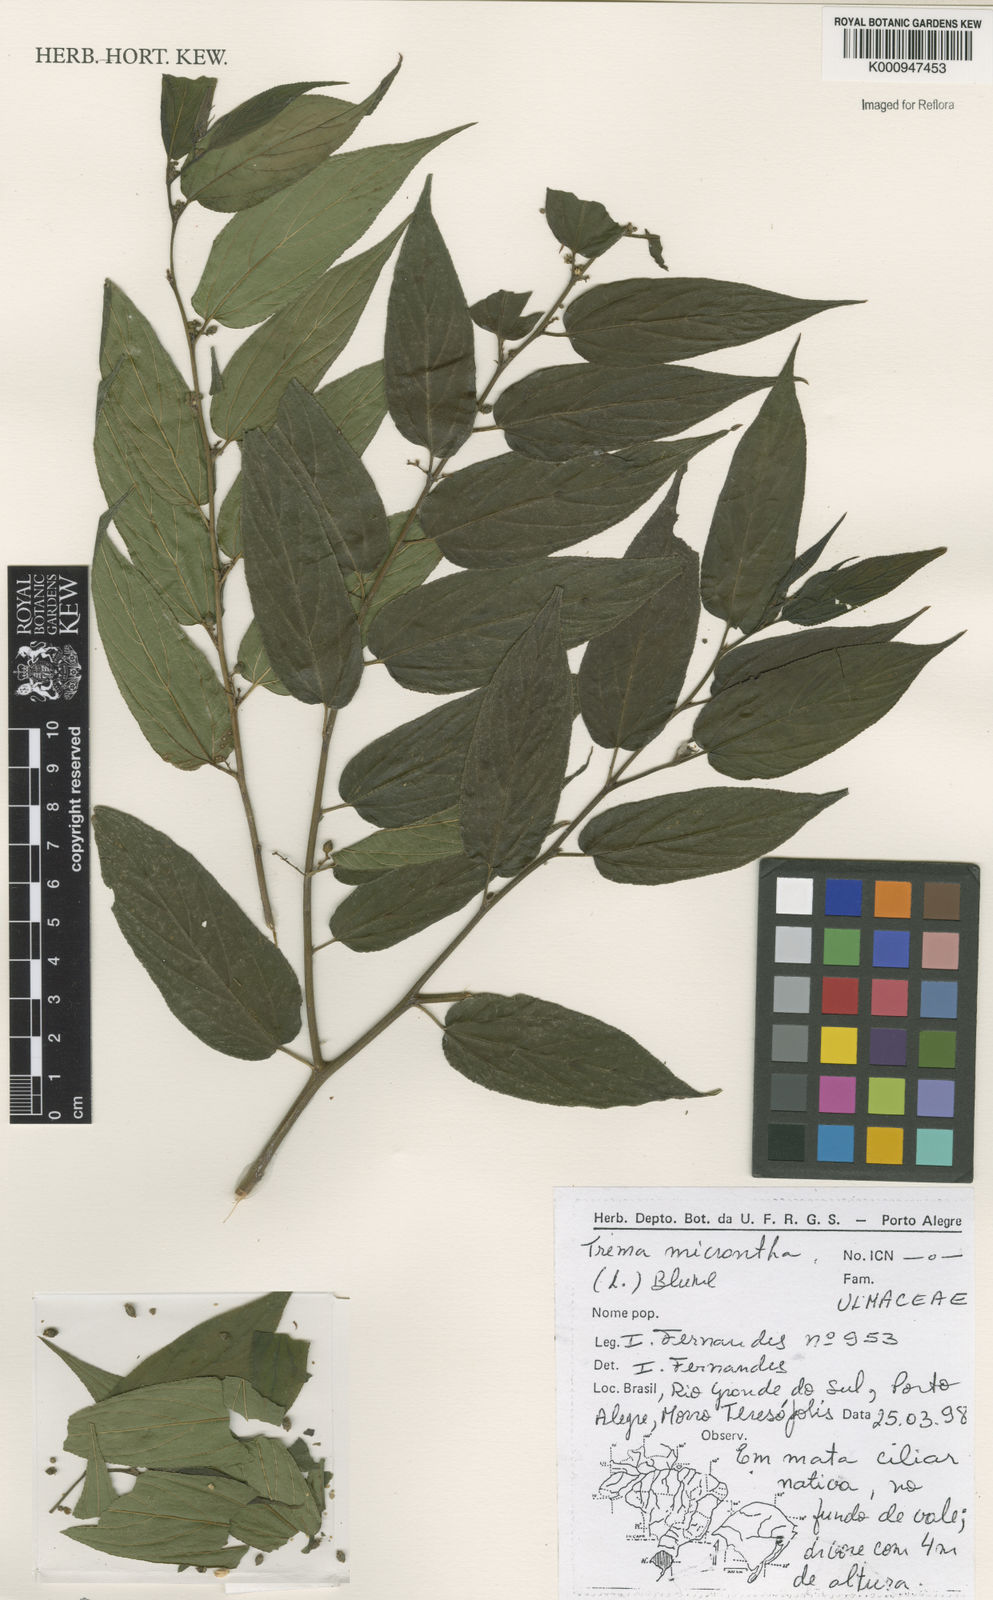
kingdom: Plantae
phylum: Tracheophyta
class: Magnoliopsida
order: Rosales
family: Cannabaceae
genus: Trema
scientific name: Trema micranthum
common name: Jamaican nettletree
